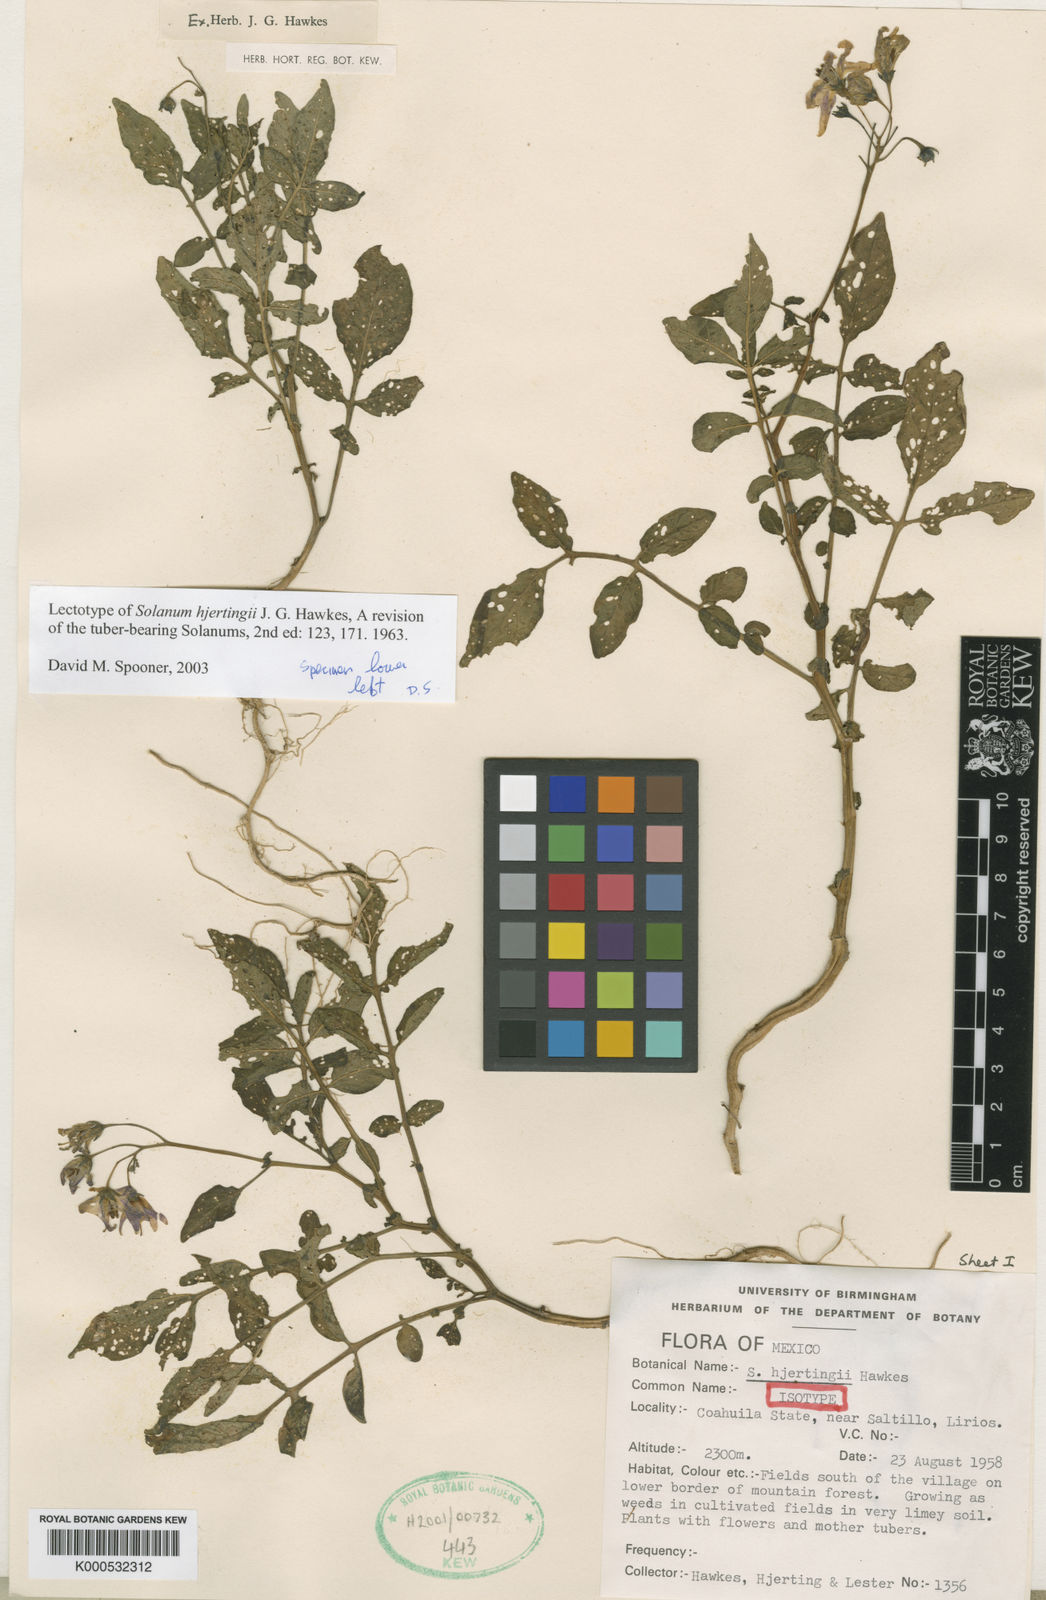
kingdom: Plantae
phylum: Tracheophyta
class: Magnoliopsida
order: Solanales
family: Solanaceae
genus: Solanum
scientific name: Solanum hjertingii
